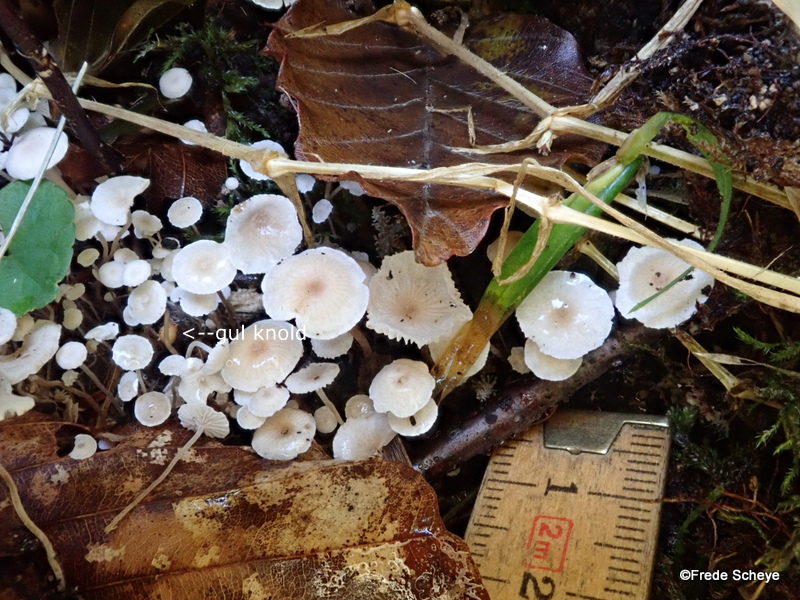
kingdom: Fungi
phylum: Basidiomycota
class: Agaricomycetes
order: Agaricales
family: Tricholomataceae
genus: Collybia
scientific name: Collybia cookei
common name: gulknoldet lighat
